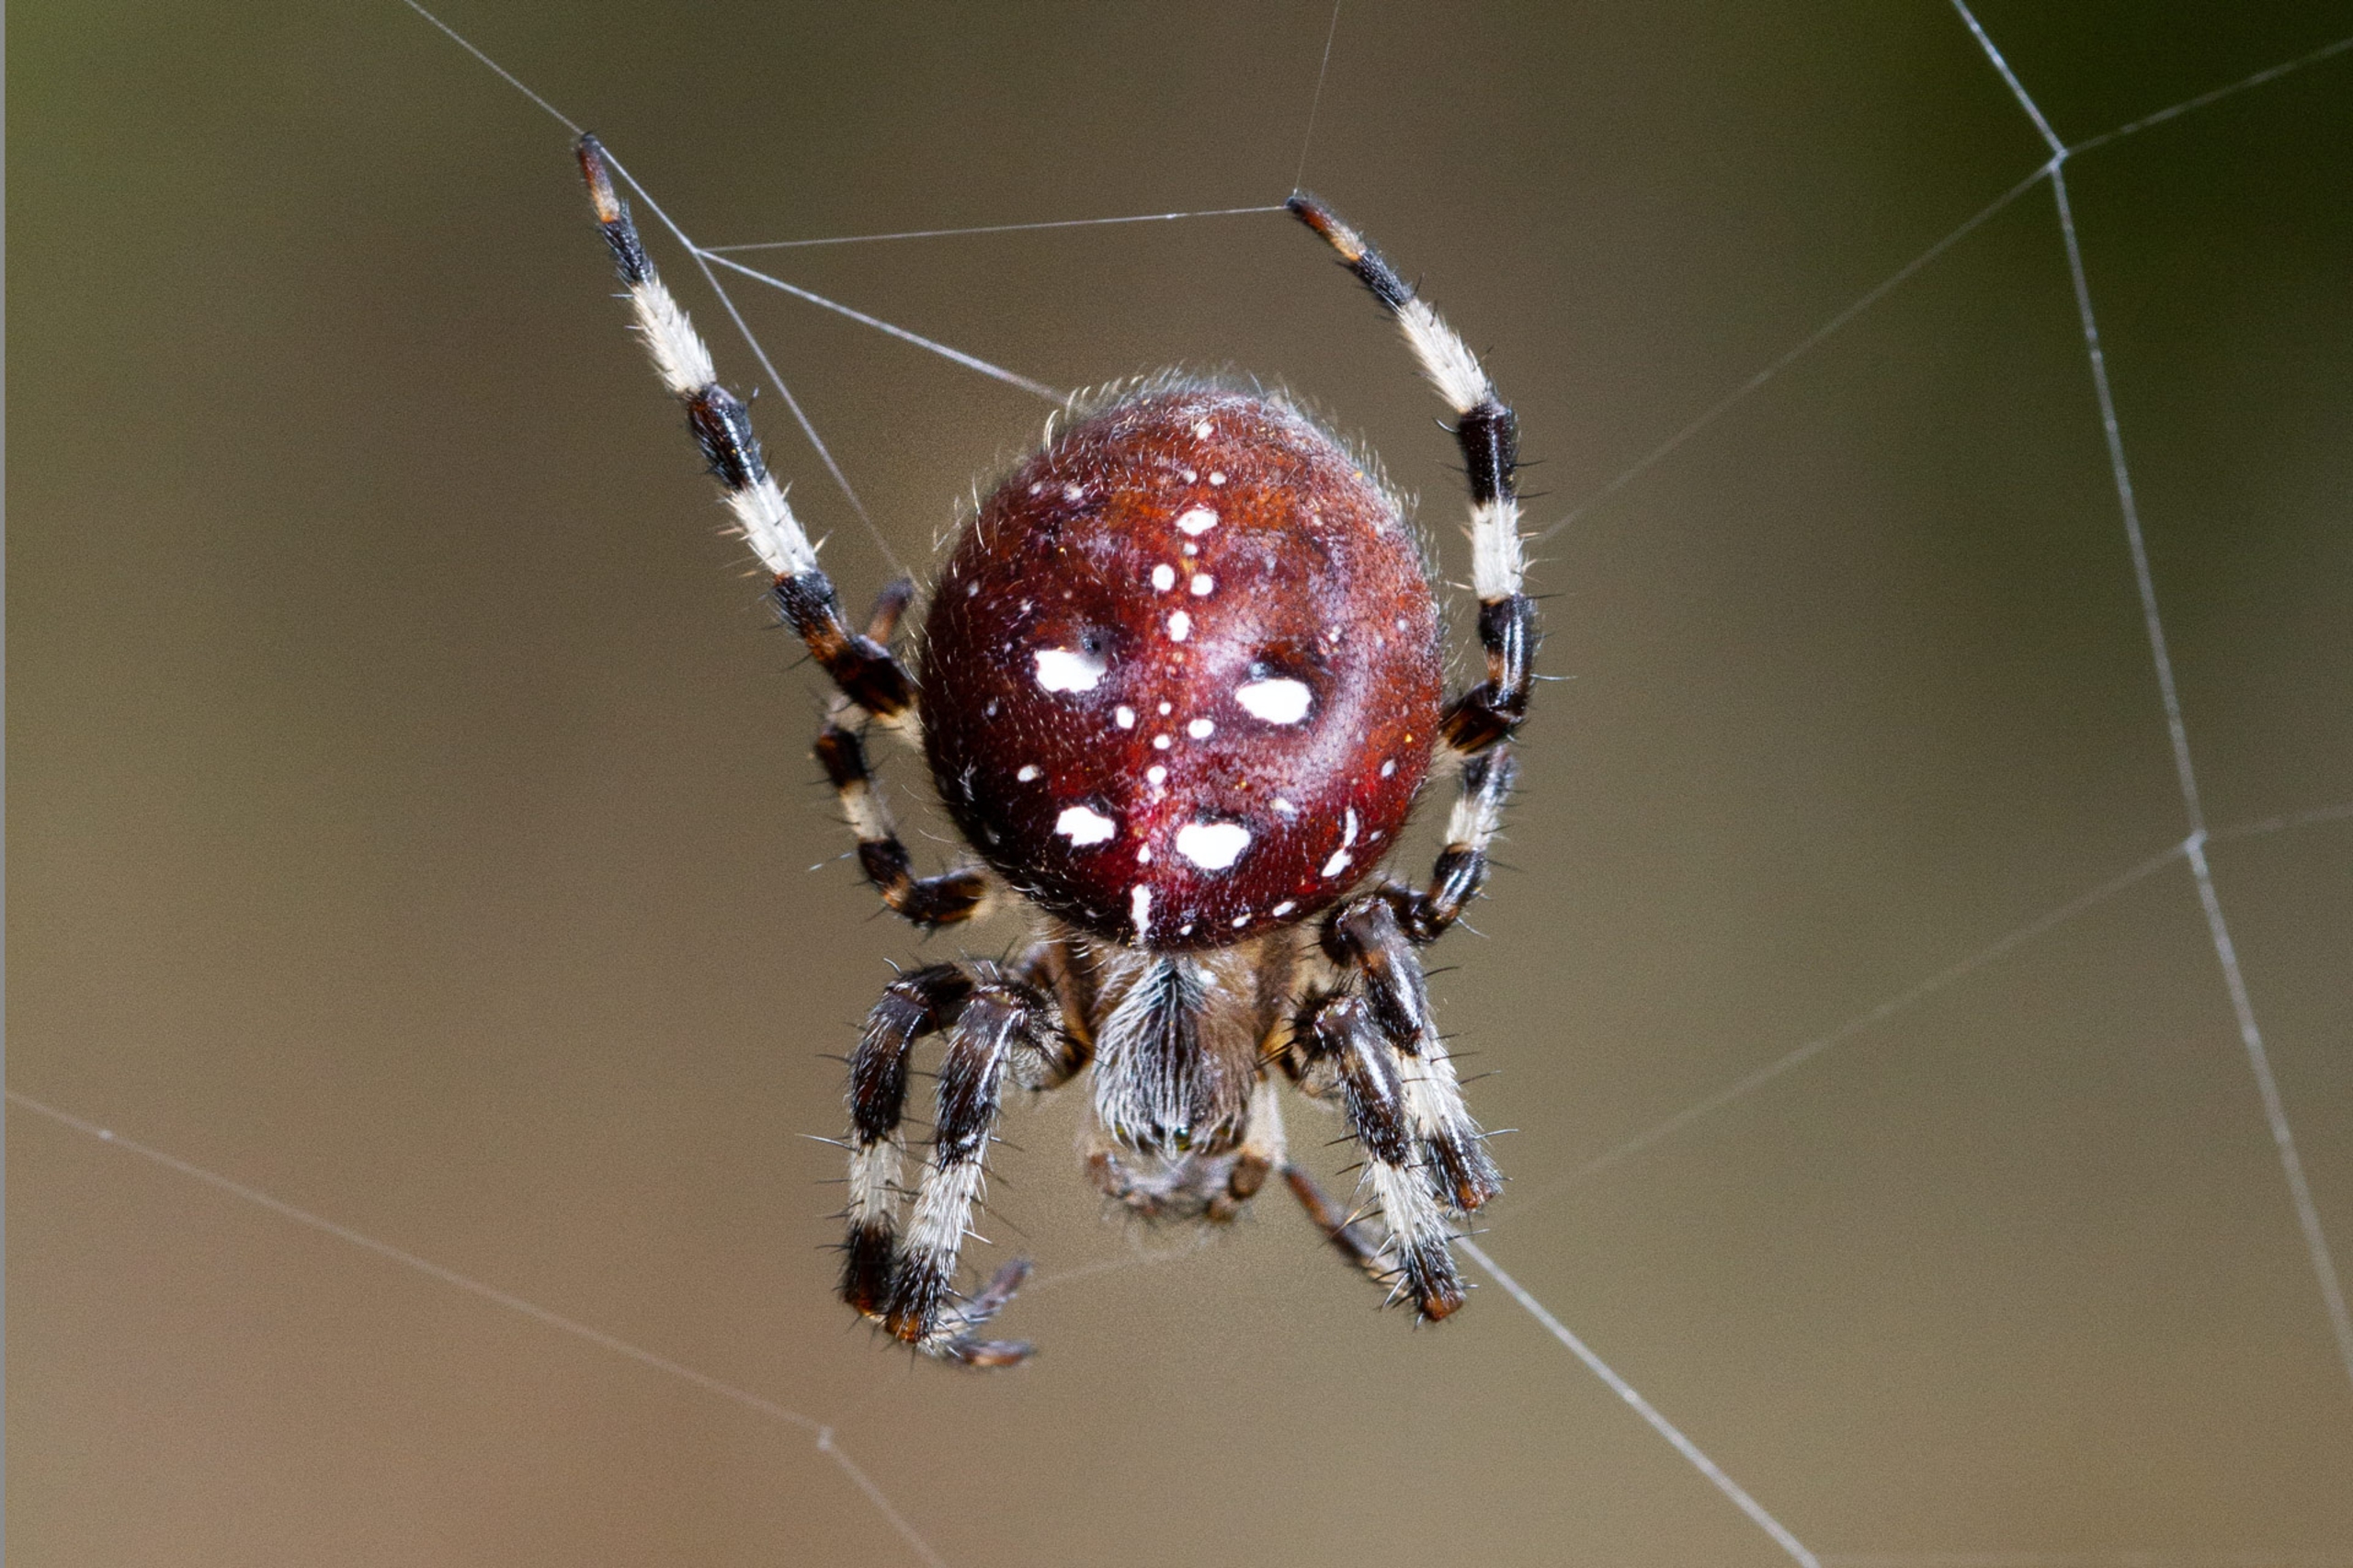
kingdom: Animalia
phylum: Arthropoda
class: Arachnida
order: Araneae
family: Araneidae
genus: Araneus
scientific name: Araneus quadratus
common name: Kvadratedderkop
